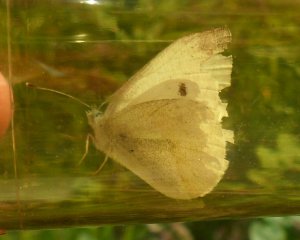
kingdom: Animalia
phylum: Arthropoda
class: Insecta
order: Lepidoptera
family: Pieridae
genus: Pieris
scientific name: Pieris rapae
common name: Cabbage White
